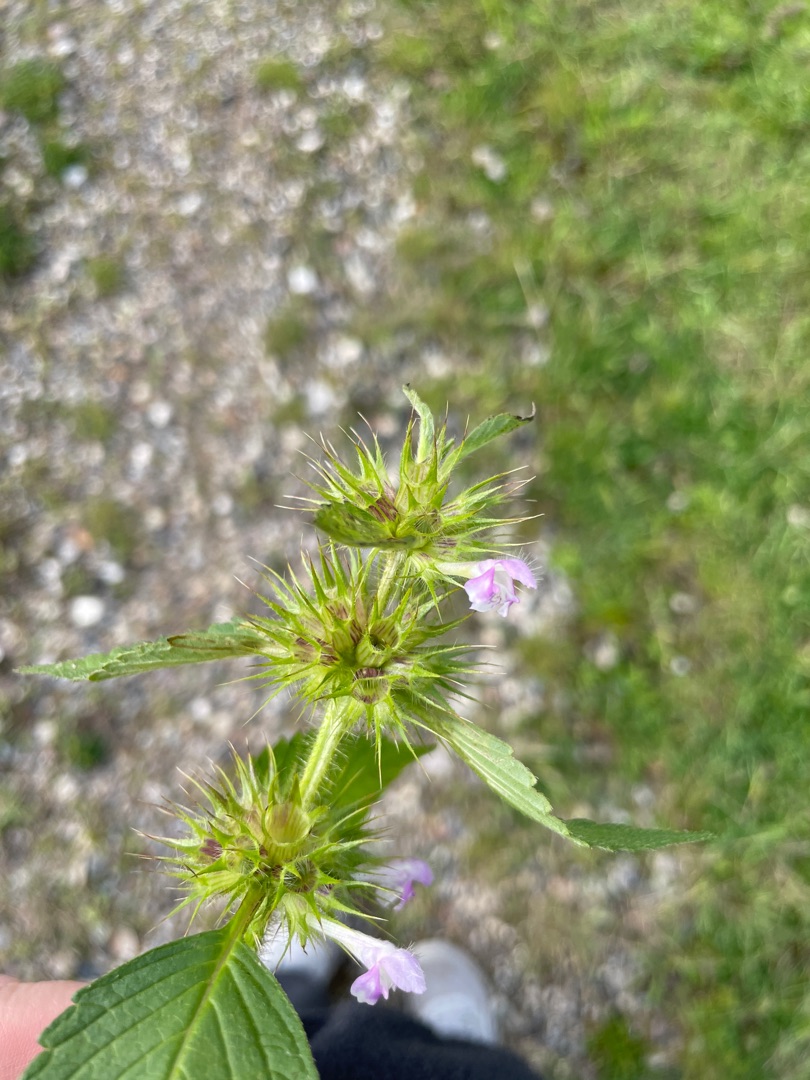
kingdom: Plantae
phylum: Tracheophyta
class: Magnoliopsida
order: Lamiales
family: Lamiaceae
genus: Galeopsis
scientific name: Galeopsis tetrahit
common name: Almindelig hanekro
